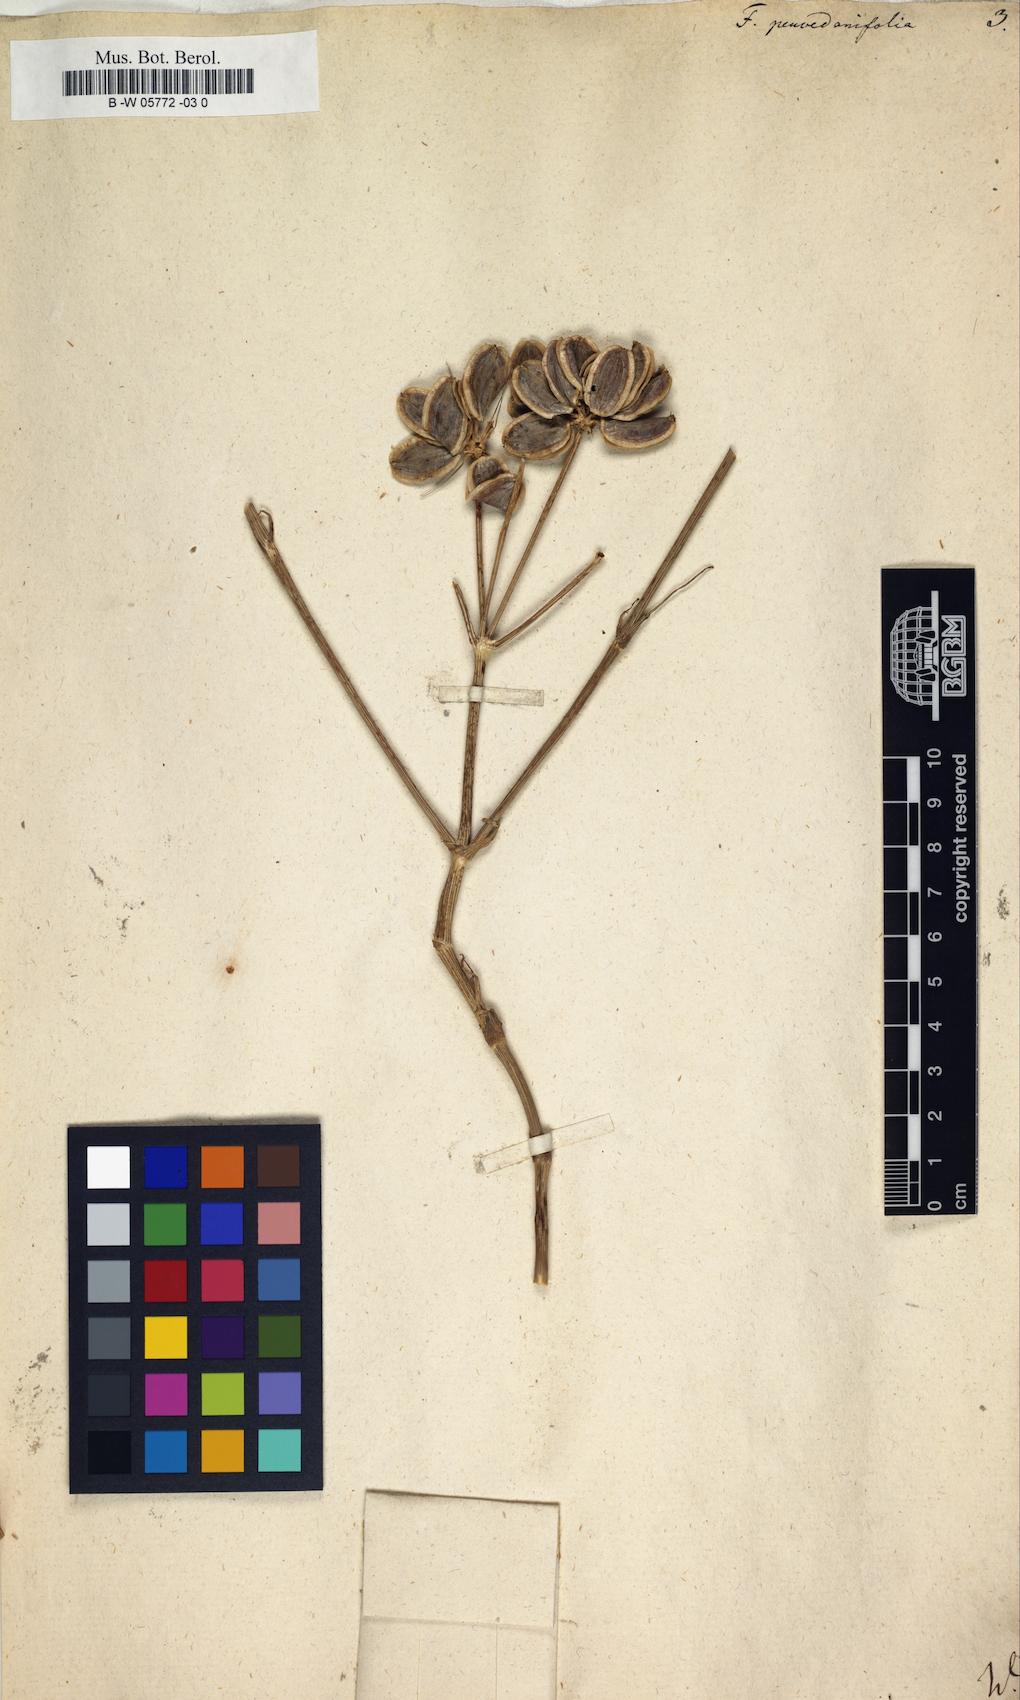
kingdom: Plantae
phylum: Tracheophyta
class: Magnoliopsida
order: Apiales
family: Apiaceae
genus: Ferula
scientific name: Ferula
